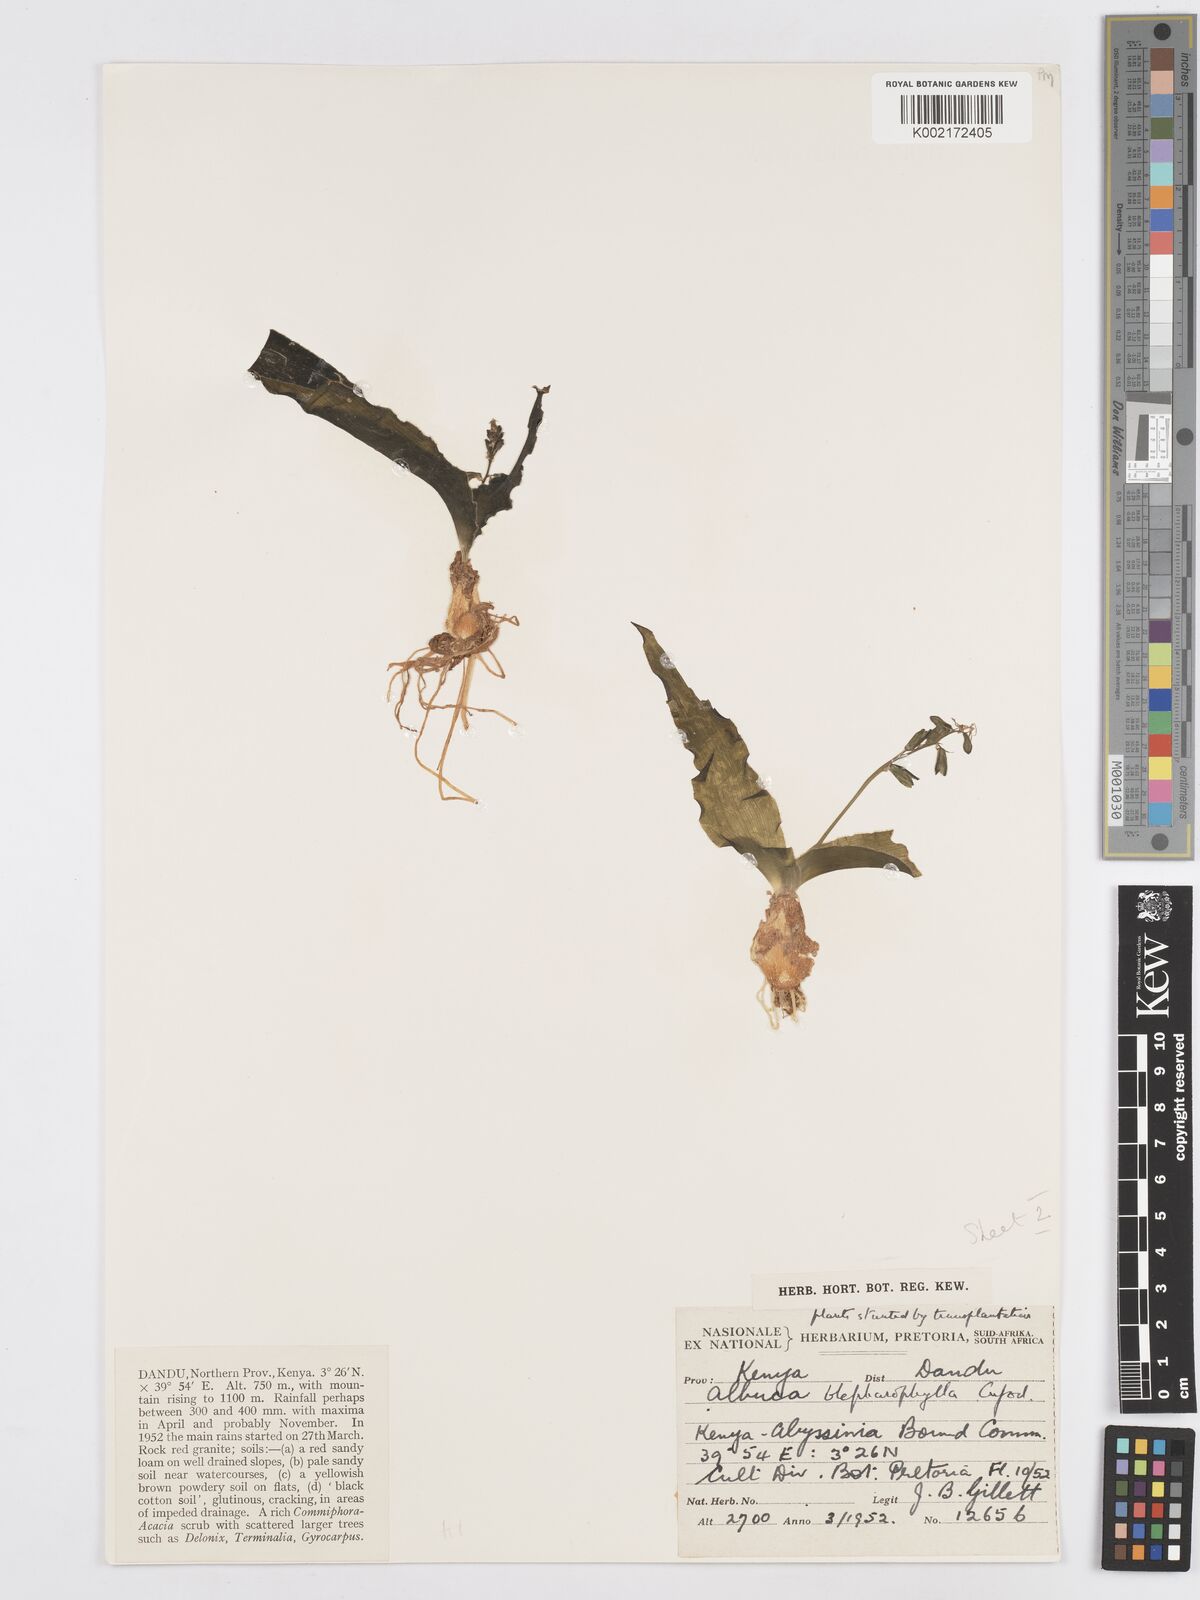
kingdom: Plantae
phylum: Tracheophyta
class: Liliopsida
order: Asparagales
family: Asparagaceae
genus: Albuca
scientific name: Albuca abyssinica
